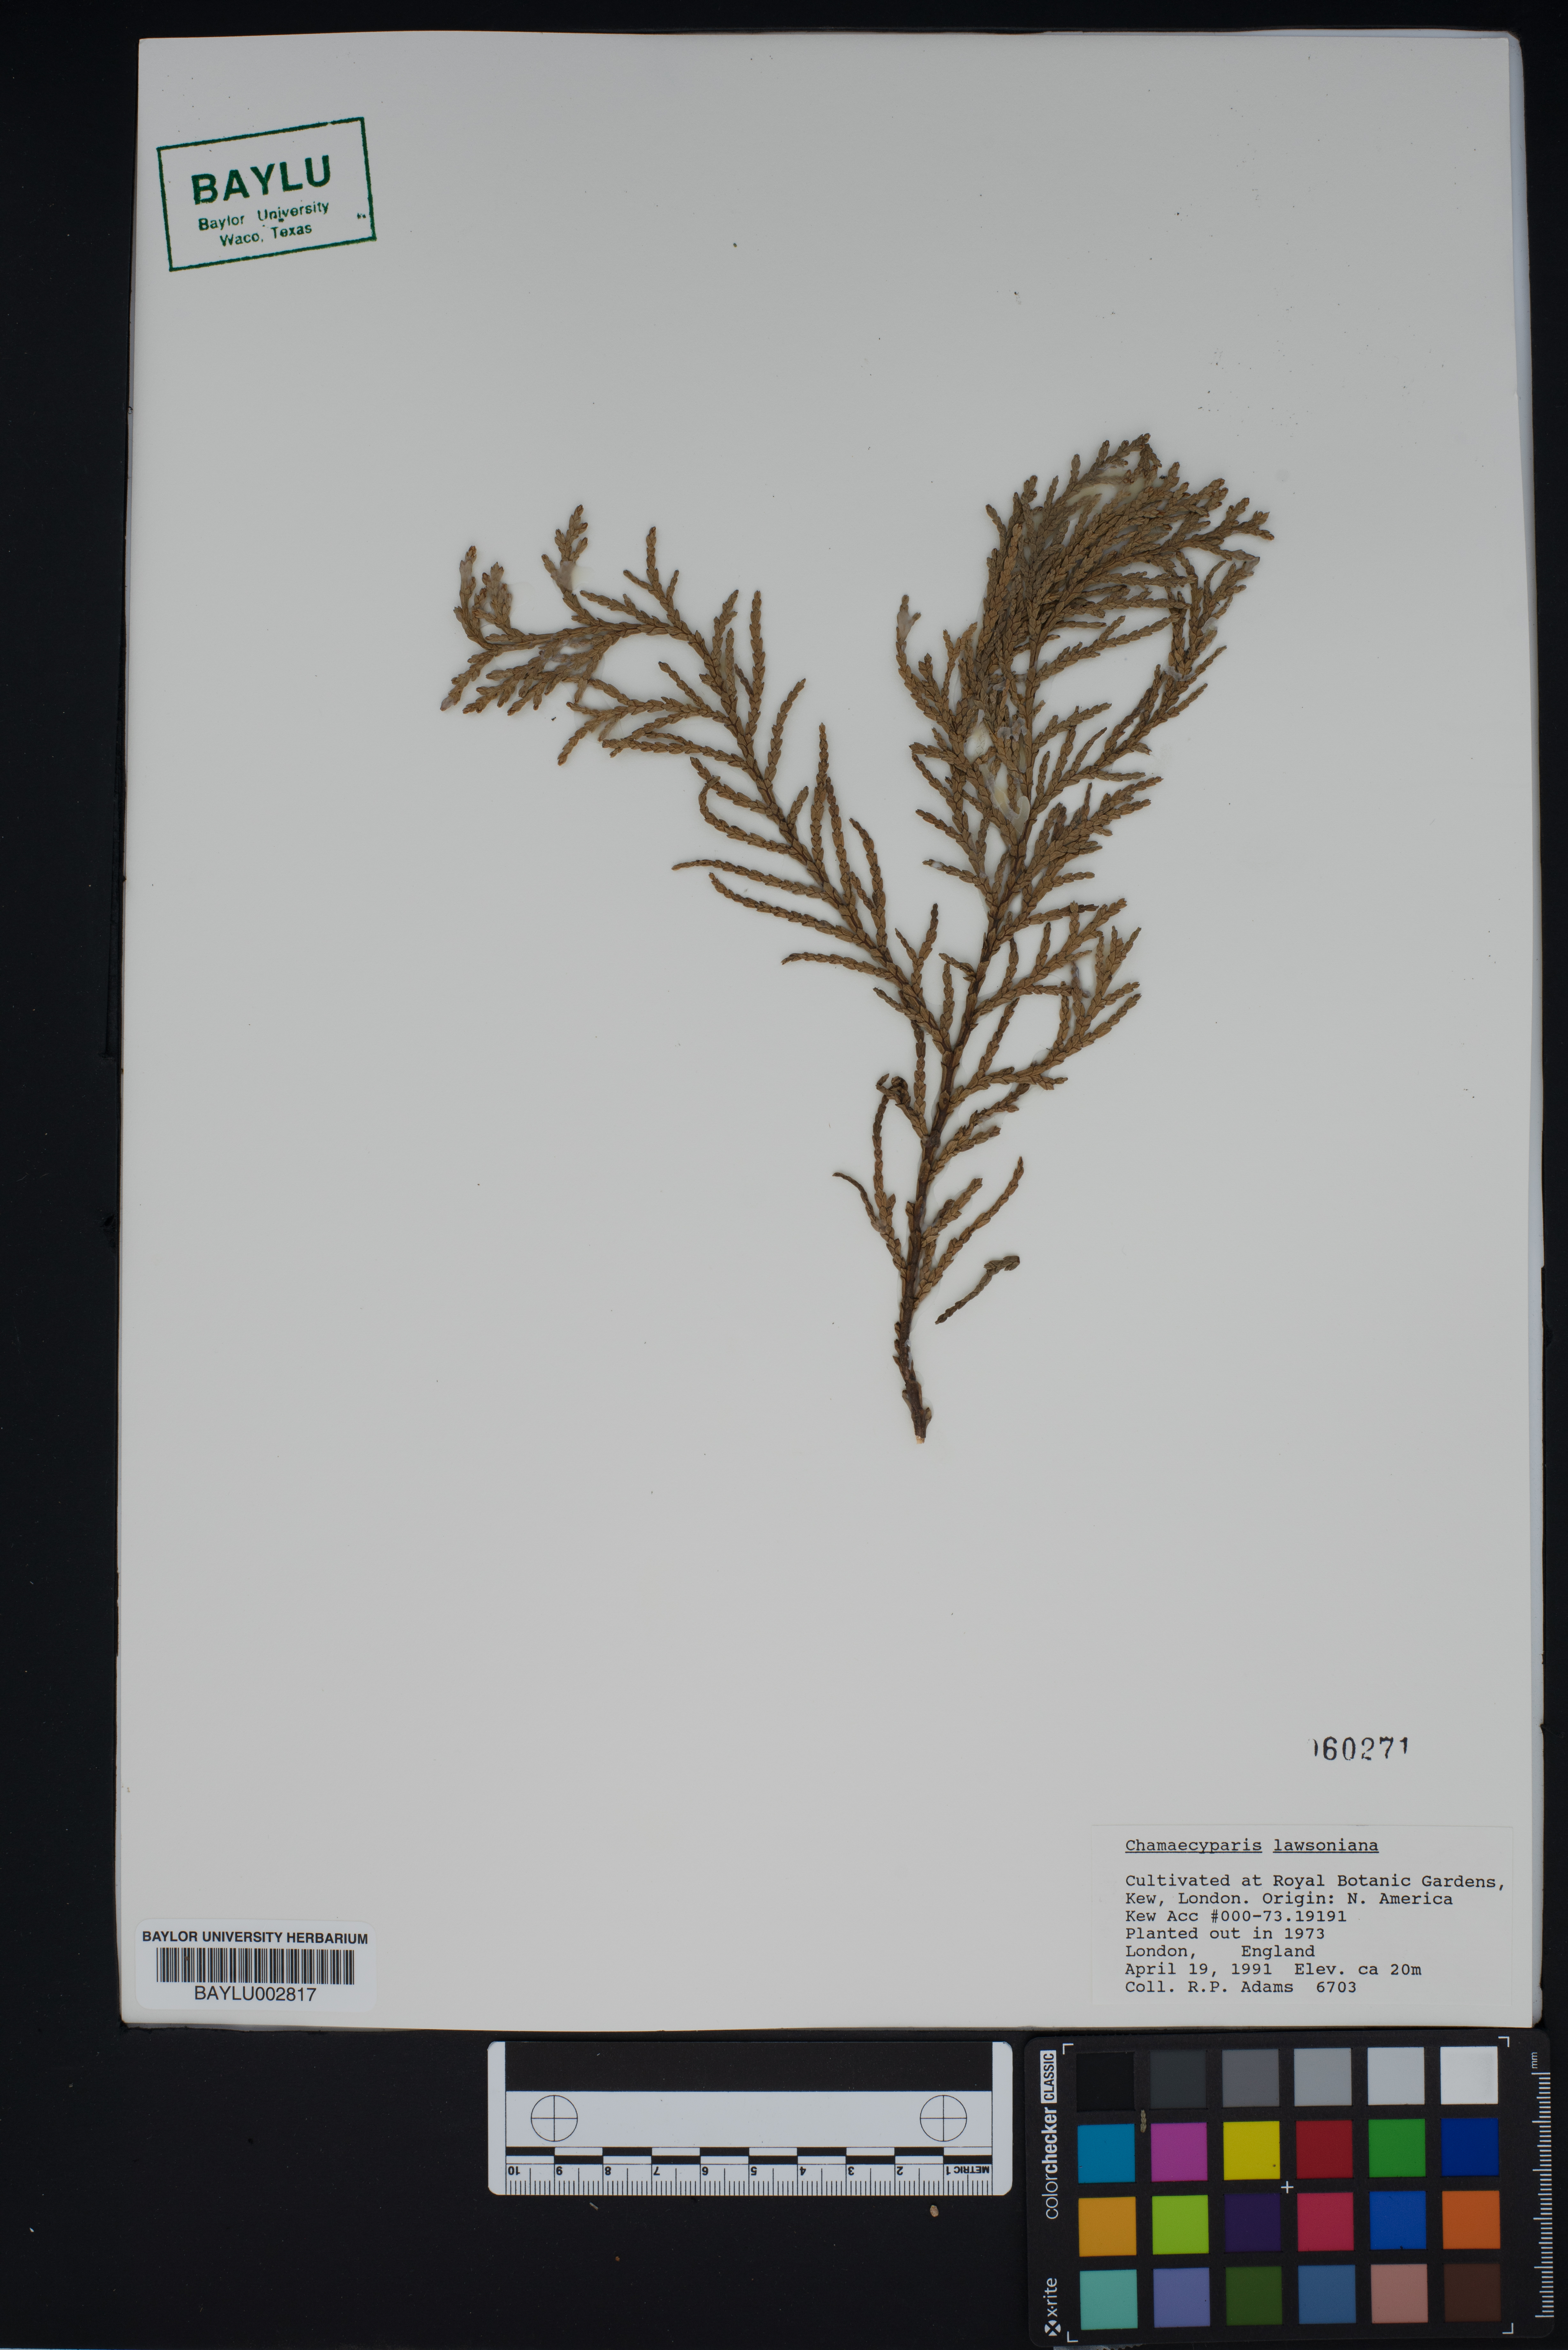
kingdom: Plantae
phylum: Tracheophyta
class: Pinopsida
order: Pinales
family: Cupressaceae
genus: Chamaecyparis
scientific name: Chamaecyparis lawsoniana
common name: Lawson's cypress
